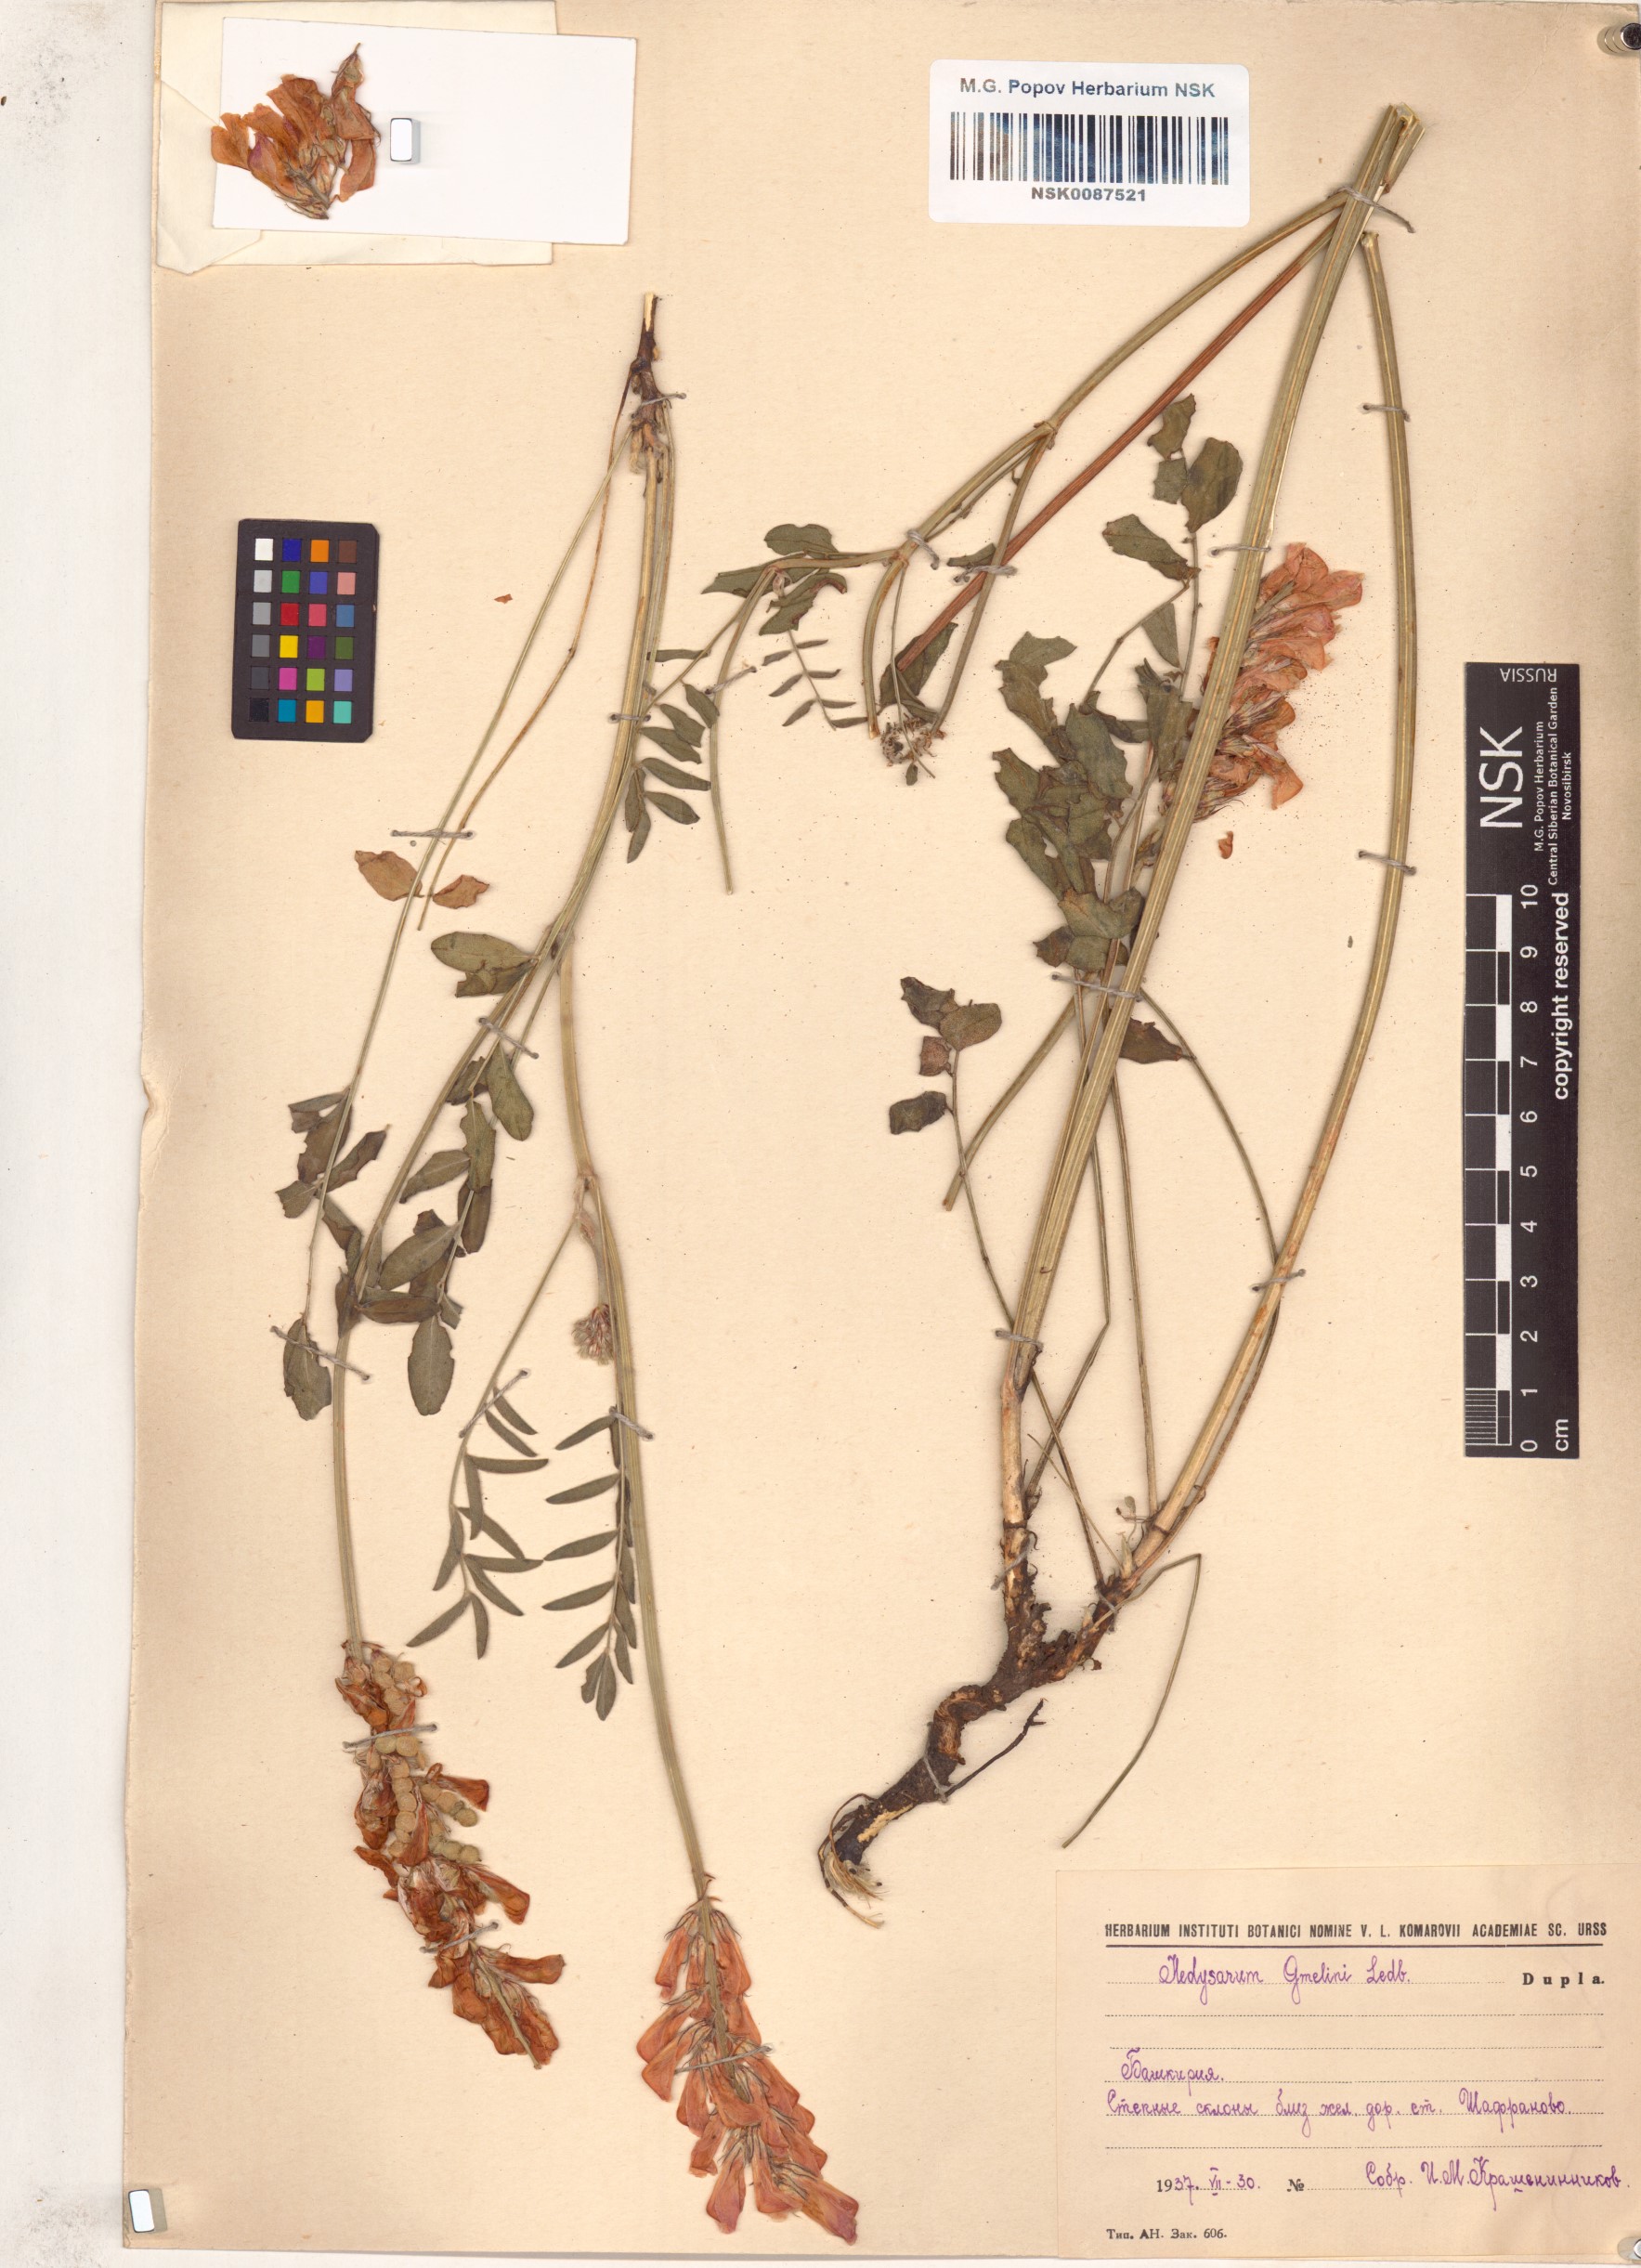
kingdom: Plantae
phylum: Tracheophyta
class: Magnoliopsida
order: Fabales
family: Fabaceae
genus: Hedysarum
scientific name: Hedysarum gmelinii
